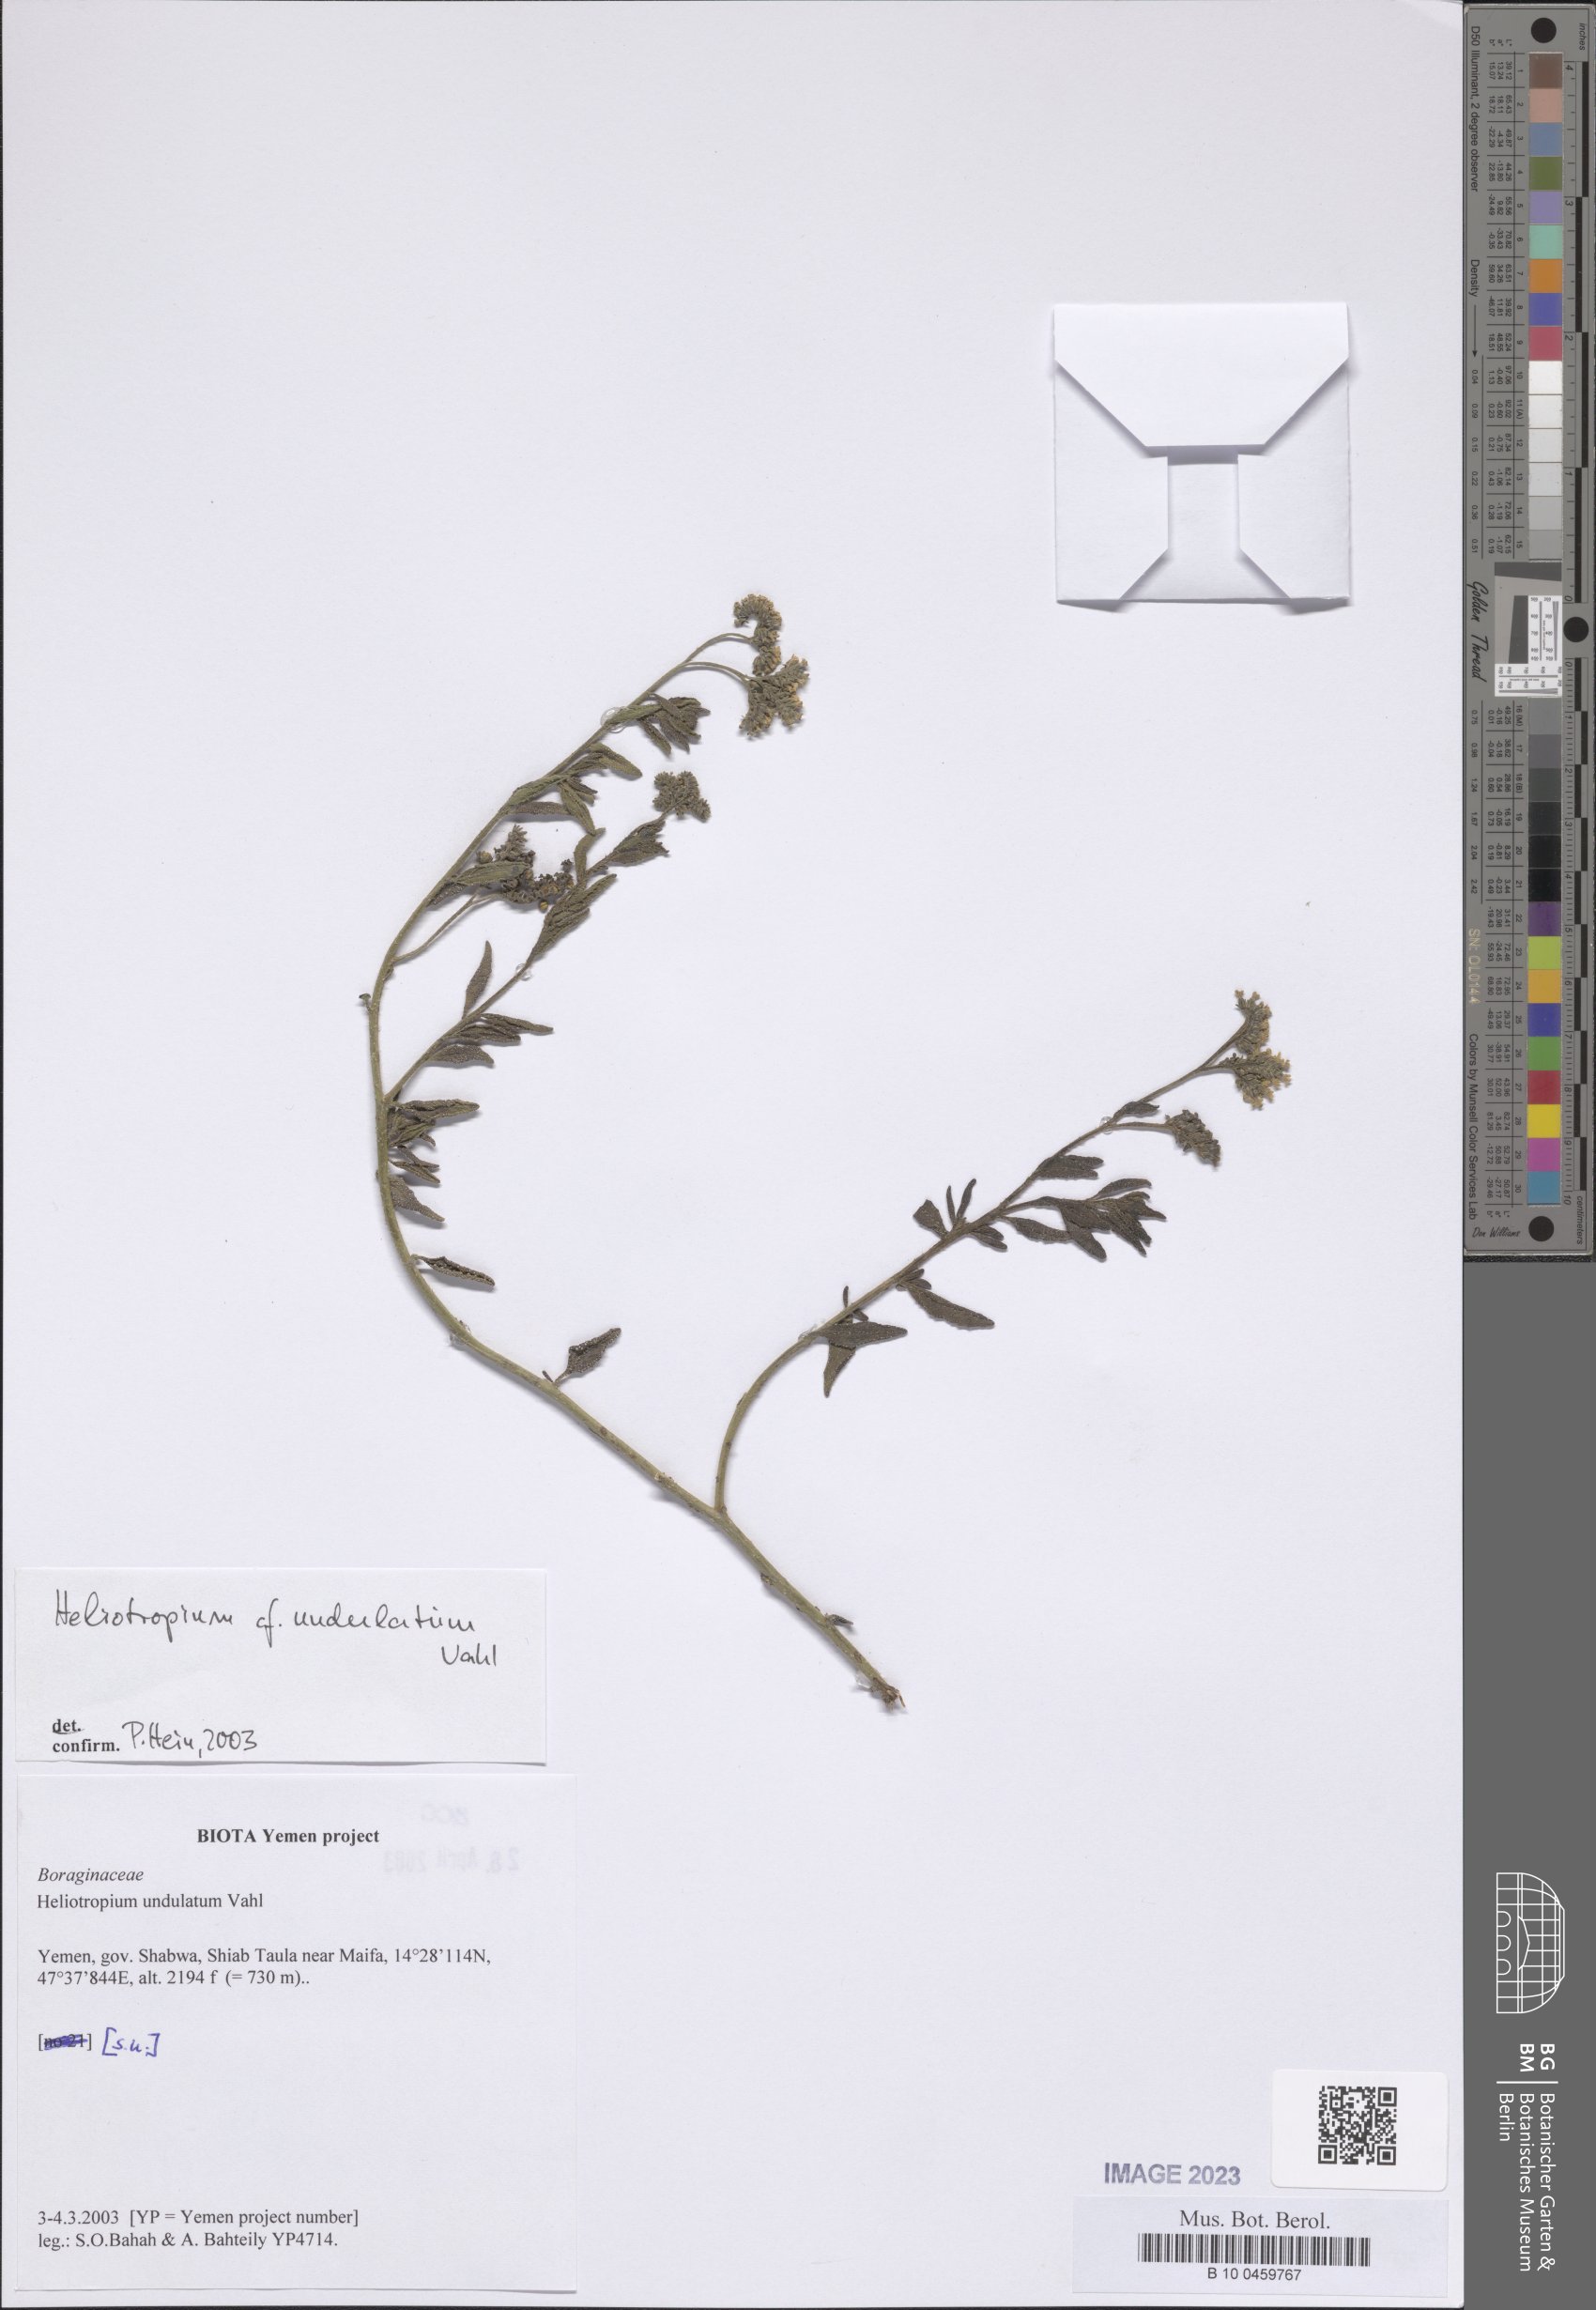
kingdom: Plantae
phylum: Tracheophyta
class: Magnoliopsida
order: Boraginales
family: Heliotropiaceae
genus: Heliotropium
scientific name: Heliotropium bacciferum
